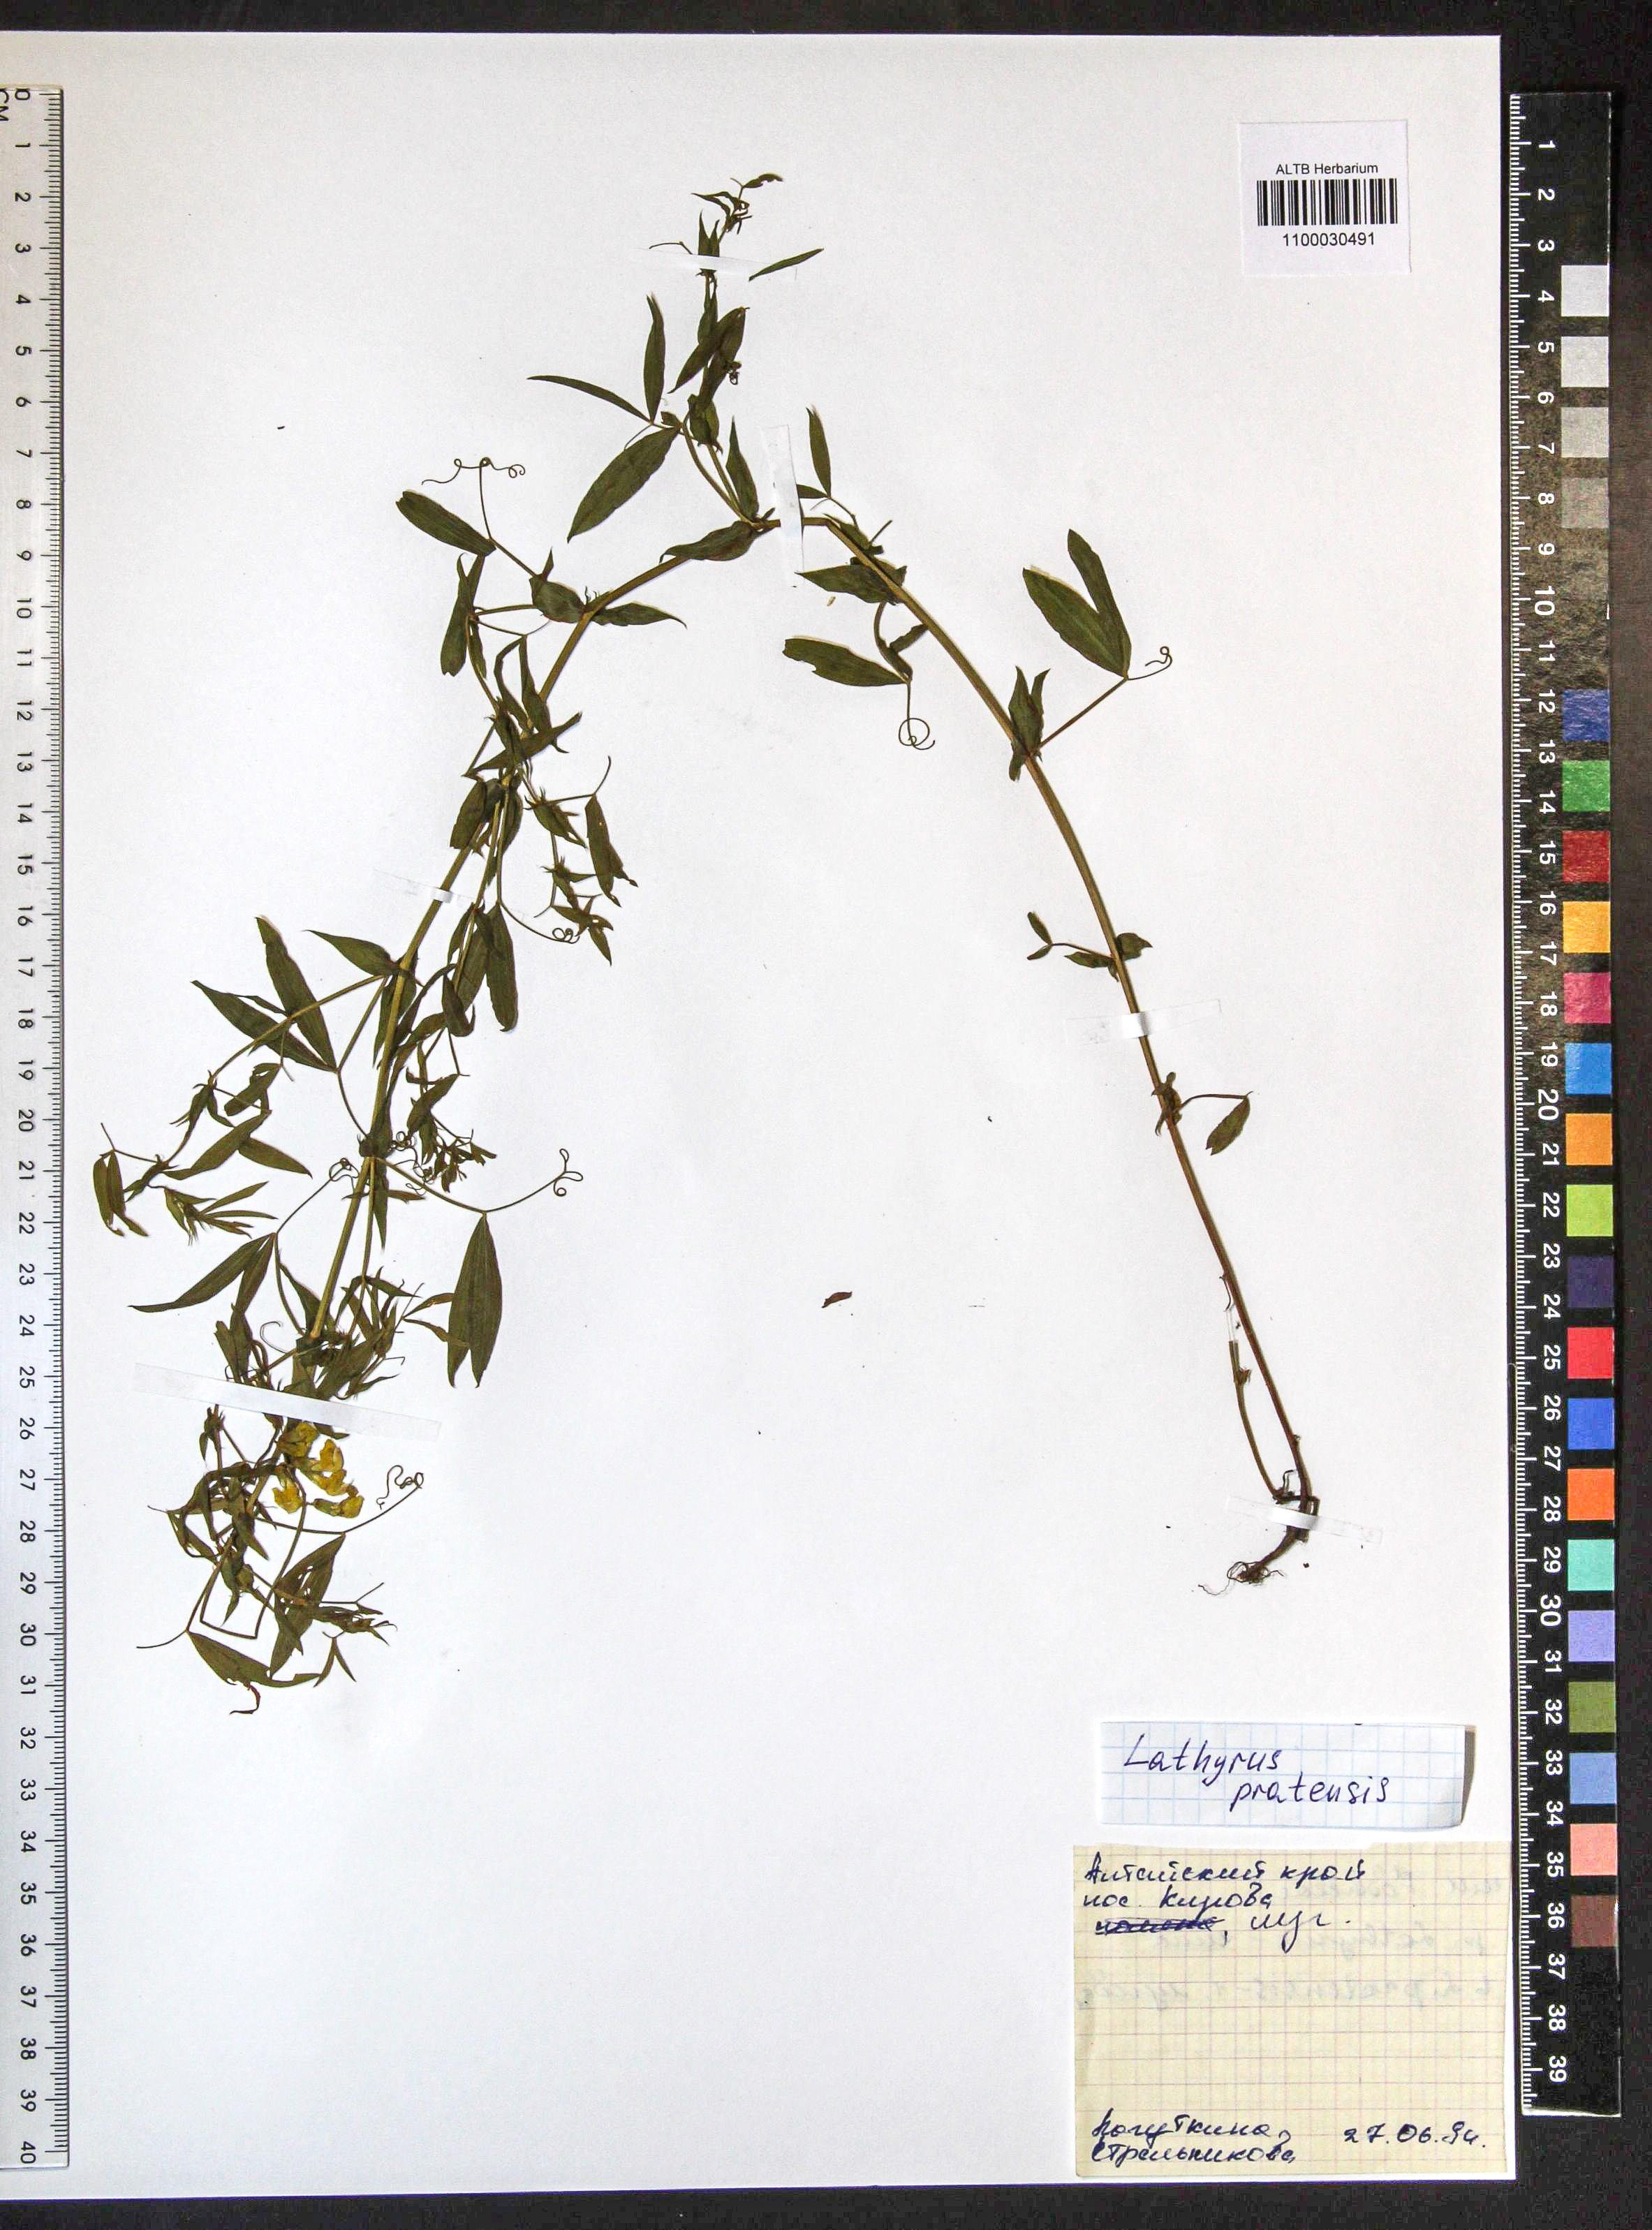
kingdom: Plantae
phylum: Tracheophyta
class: Magnoliopsida
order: Fabales
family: Fabaceae
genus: Lathyrus
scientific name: Lathyrus pratensis
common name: Meadow vetchling
